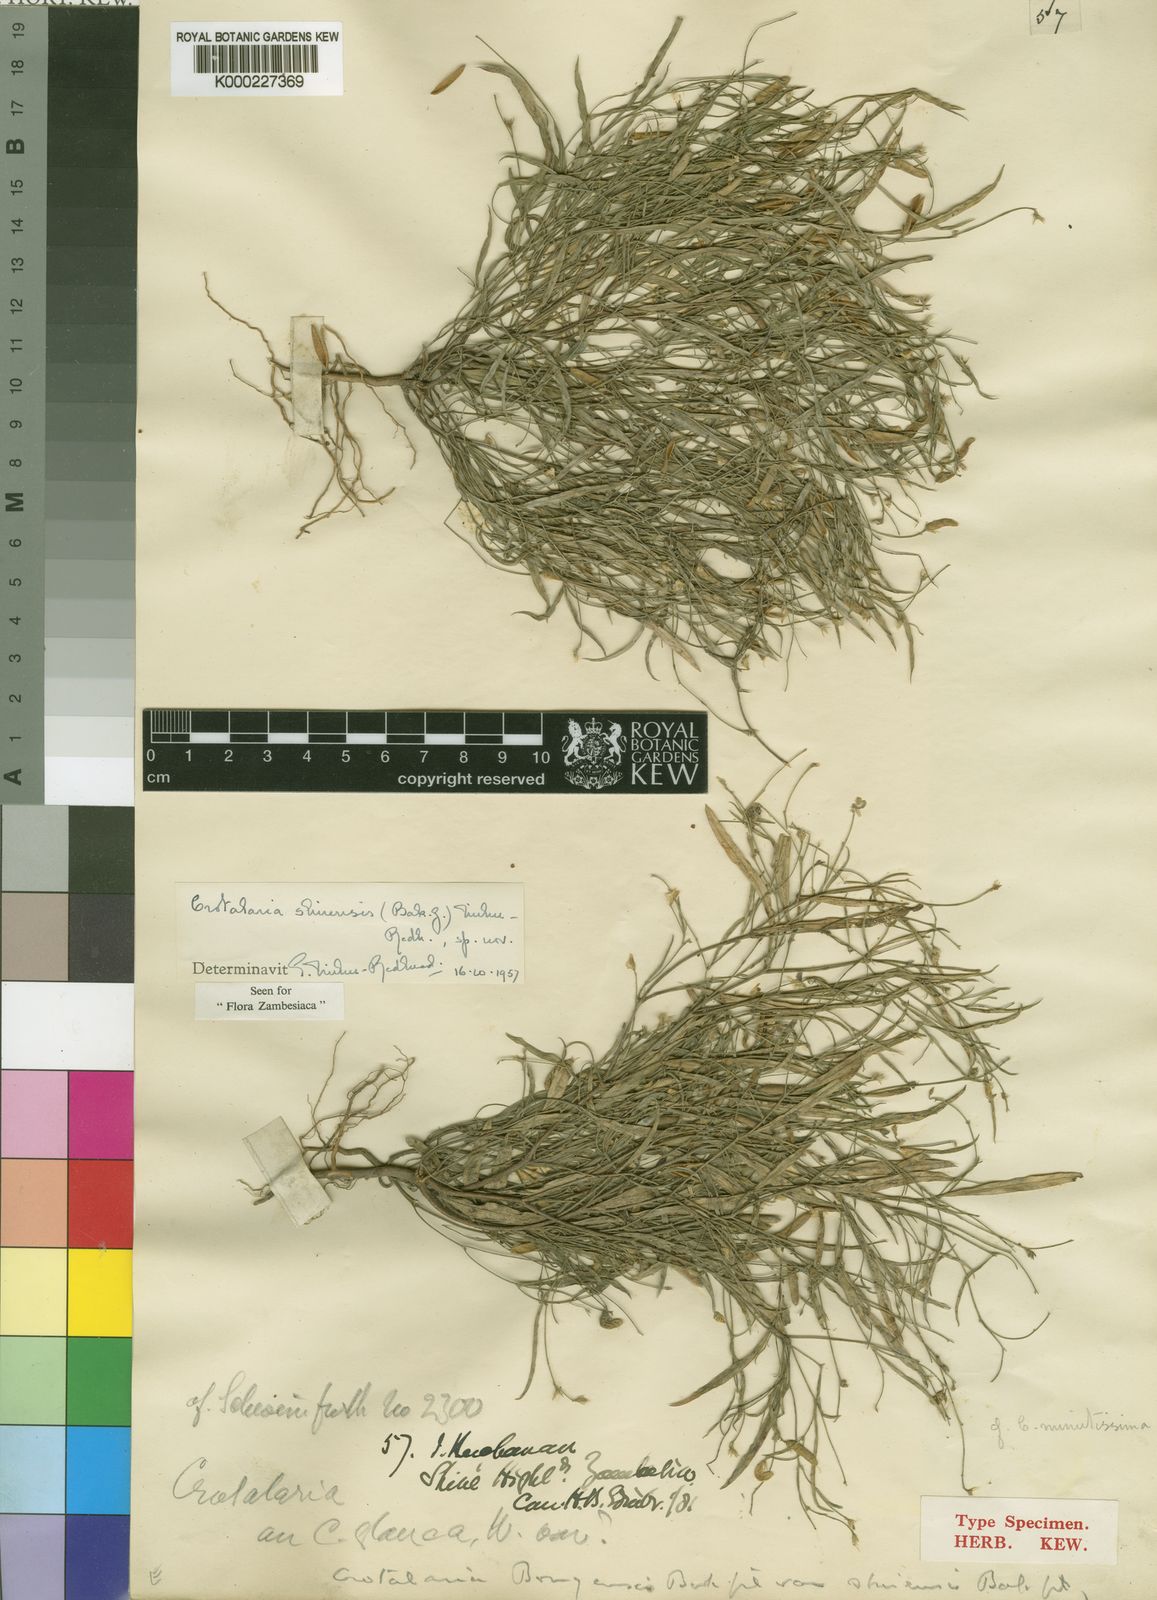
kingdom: Plantae
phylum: Tracheophyta
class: Magnoliopsida
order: Fabales
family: Fabaceae
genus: Crotalaria
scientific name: Crotalaria shirensis
